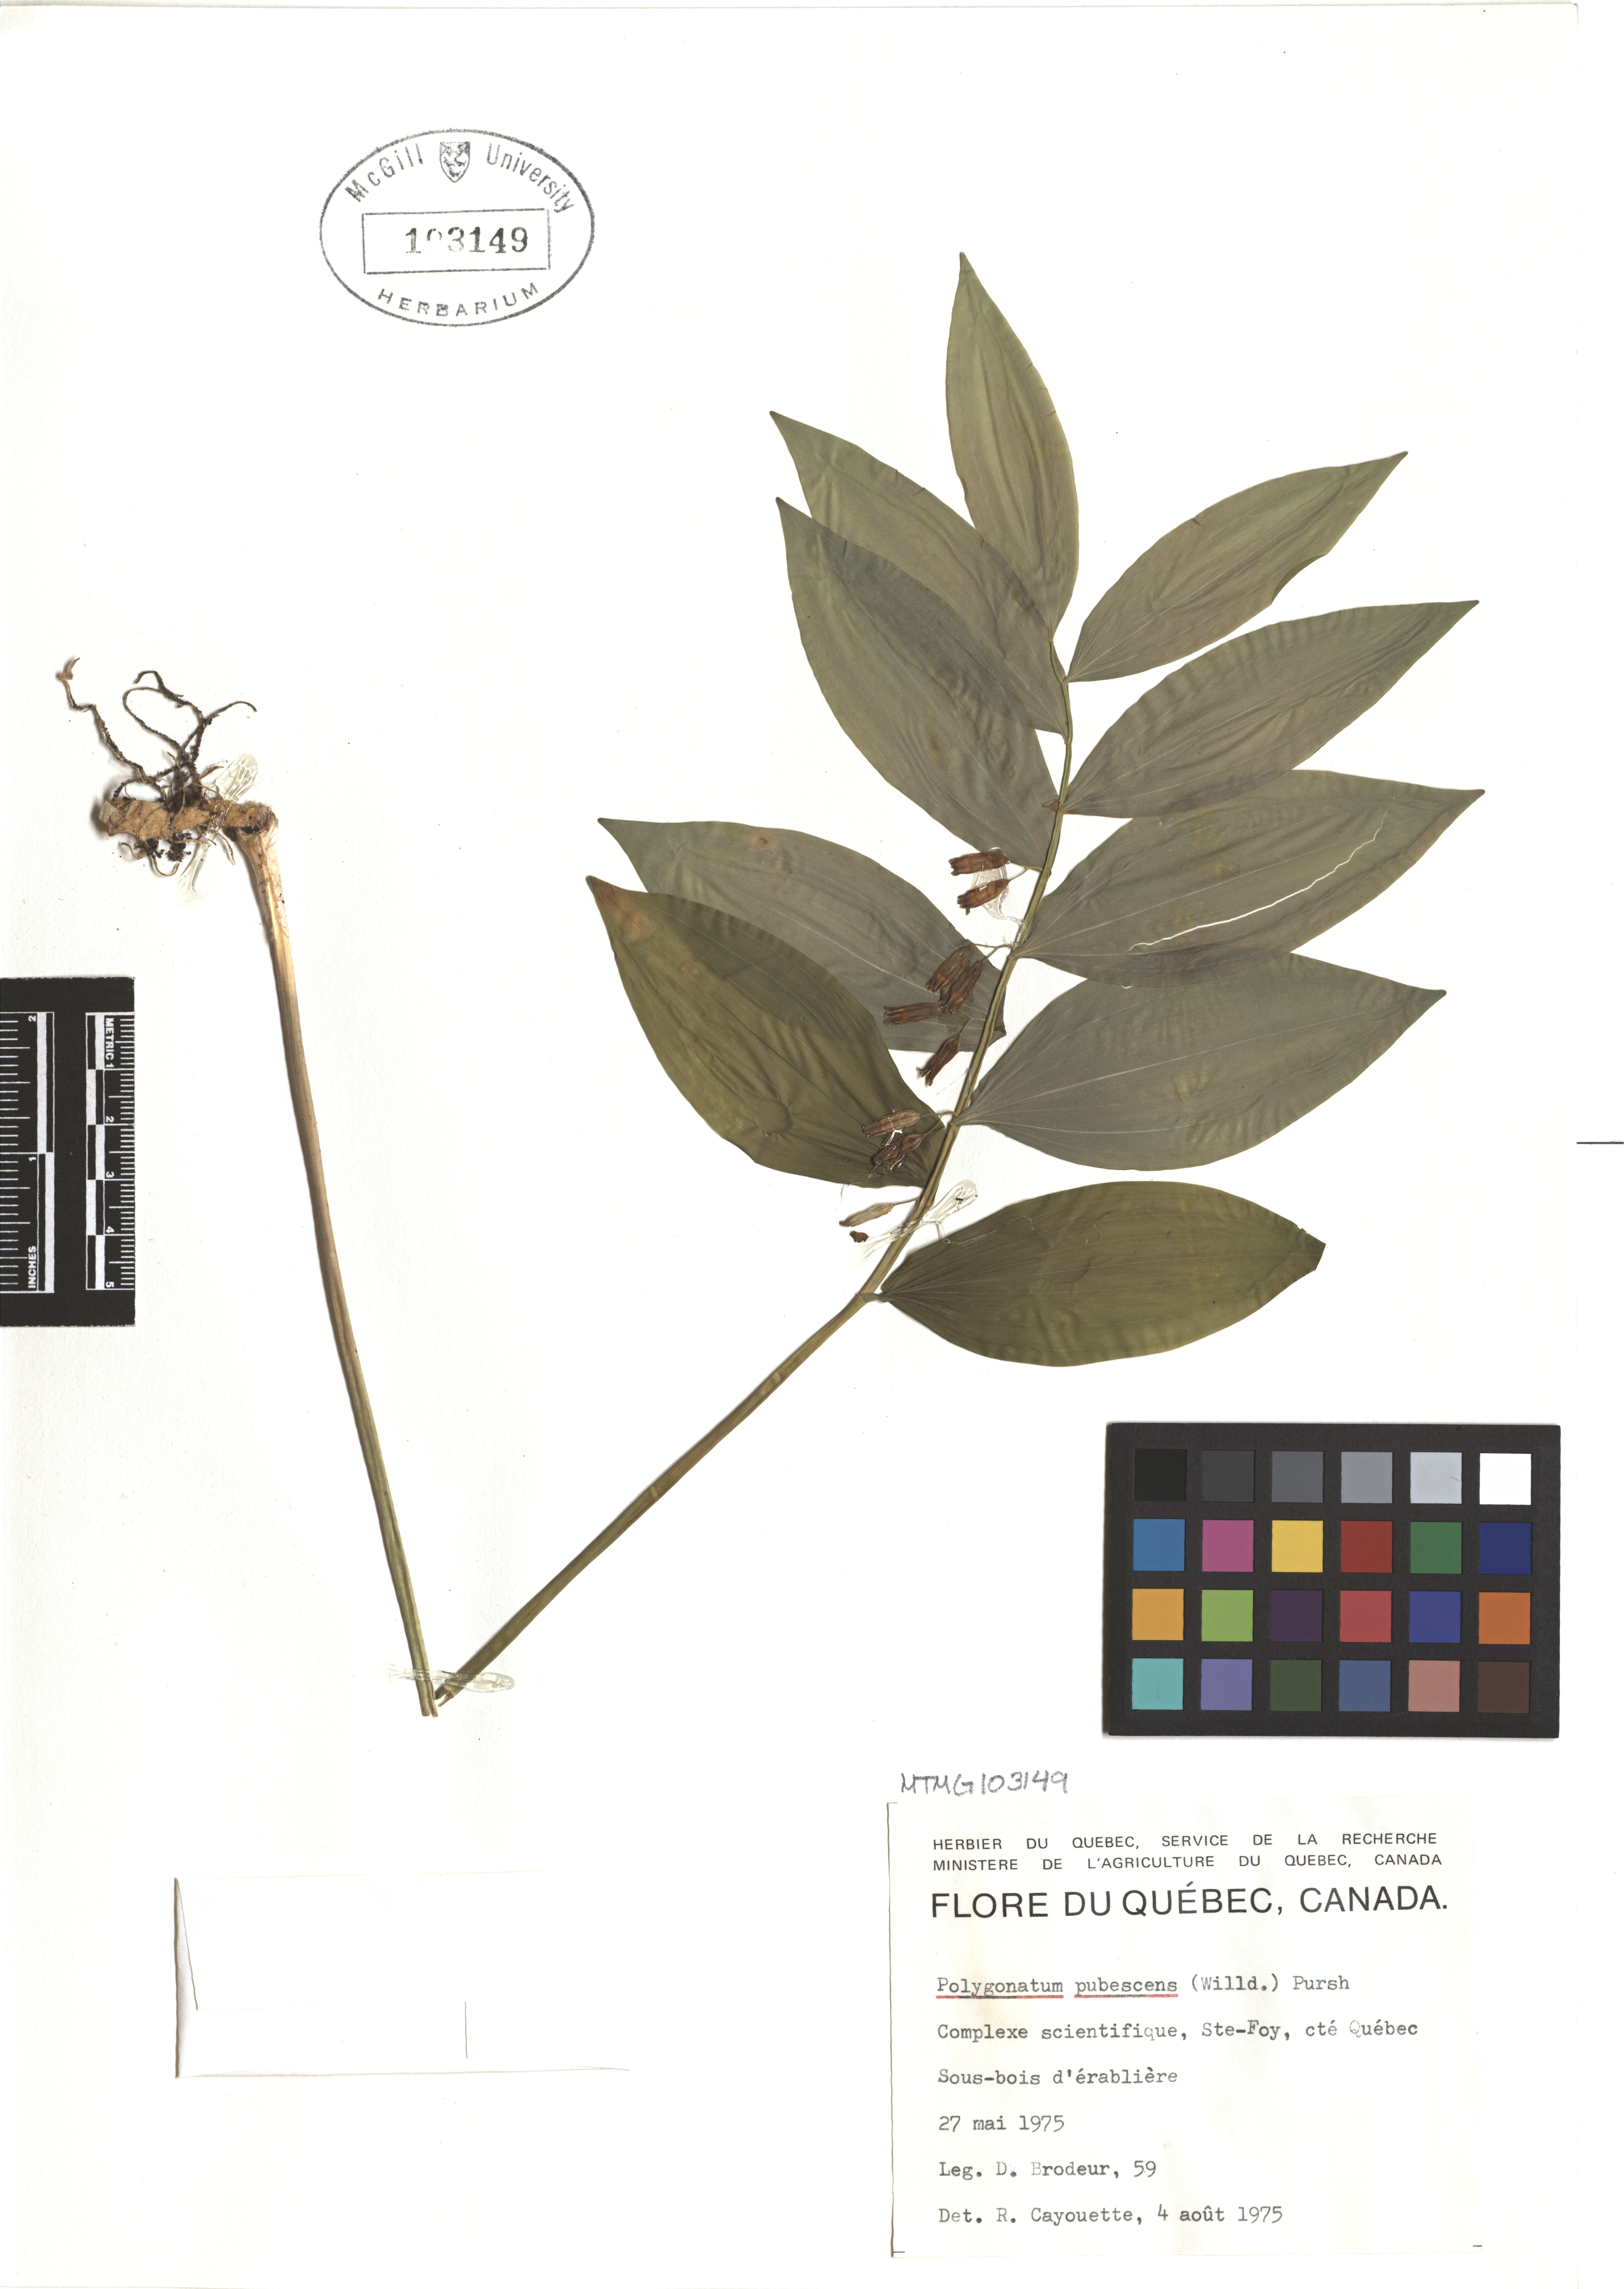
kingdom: Plantae
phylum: Tracheophyta
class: Liliopsida
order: Asparagales
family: Asparagaceae
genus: Polygonatum
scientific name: Polygonatum pubescens
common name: Downy solomon's seal
